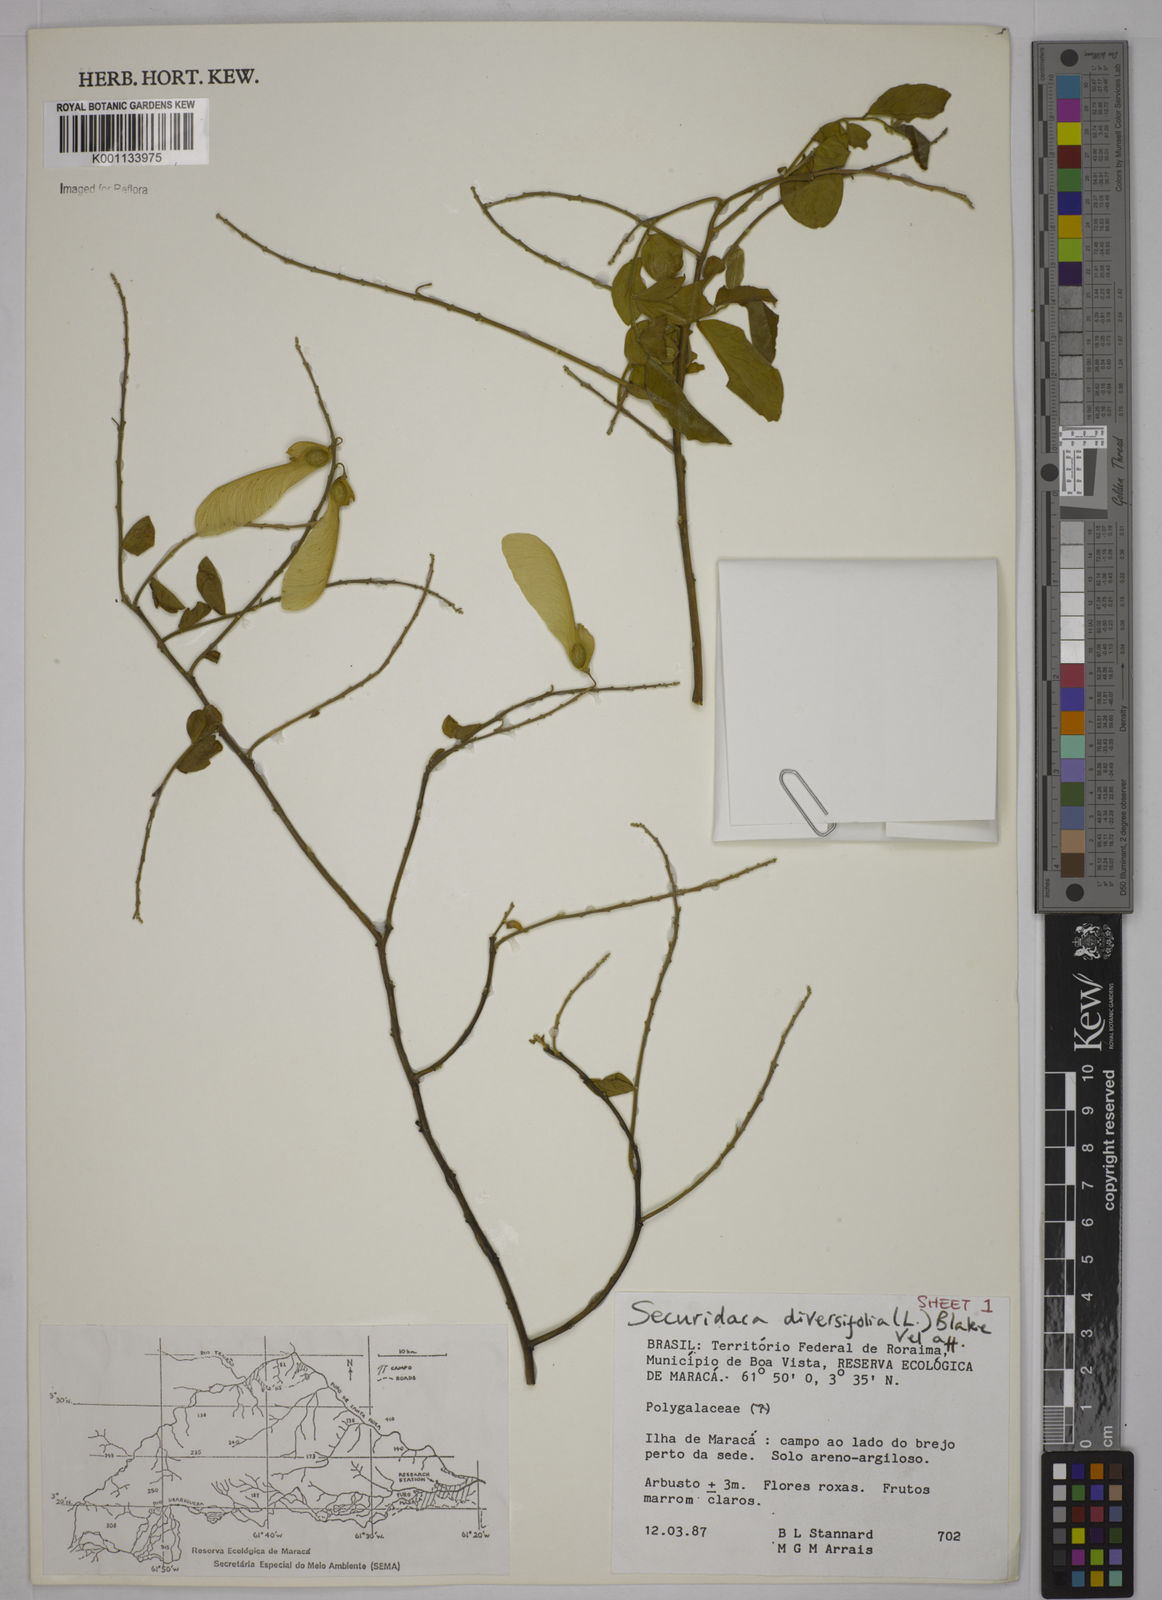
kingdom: Plantae
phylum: Tracheophyta
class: Magnoliopsida
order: Fabales
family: Polygalaceae
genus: Securidaca
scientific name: Securidaca diversifolia
